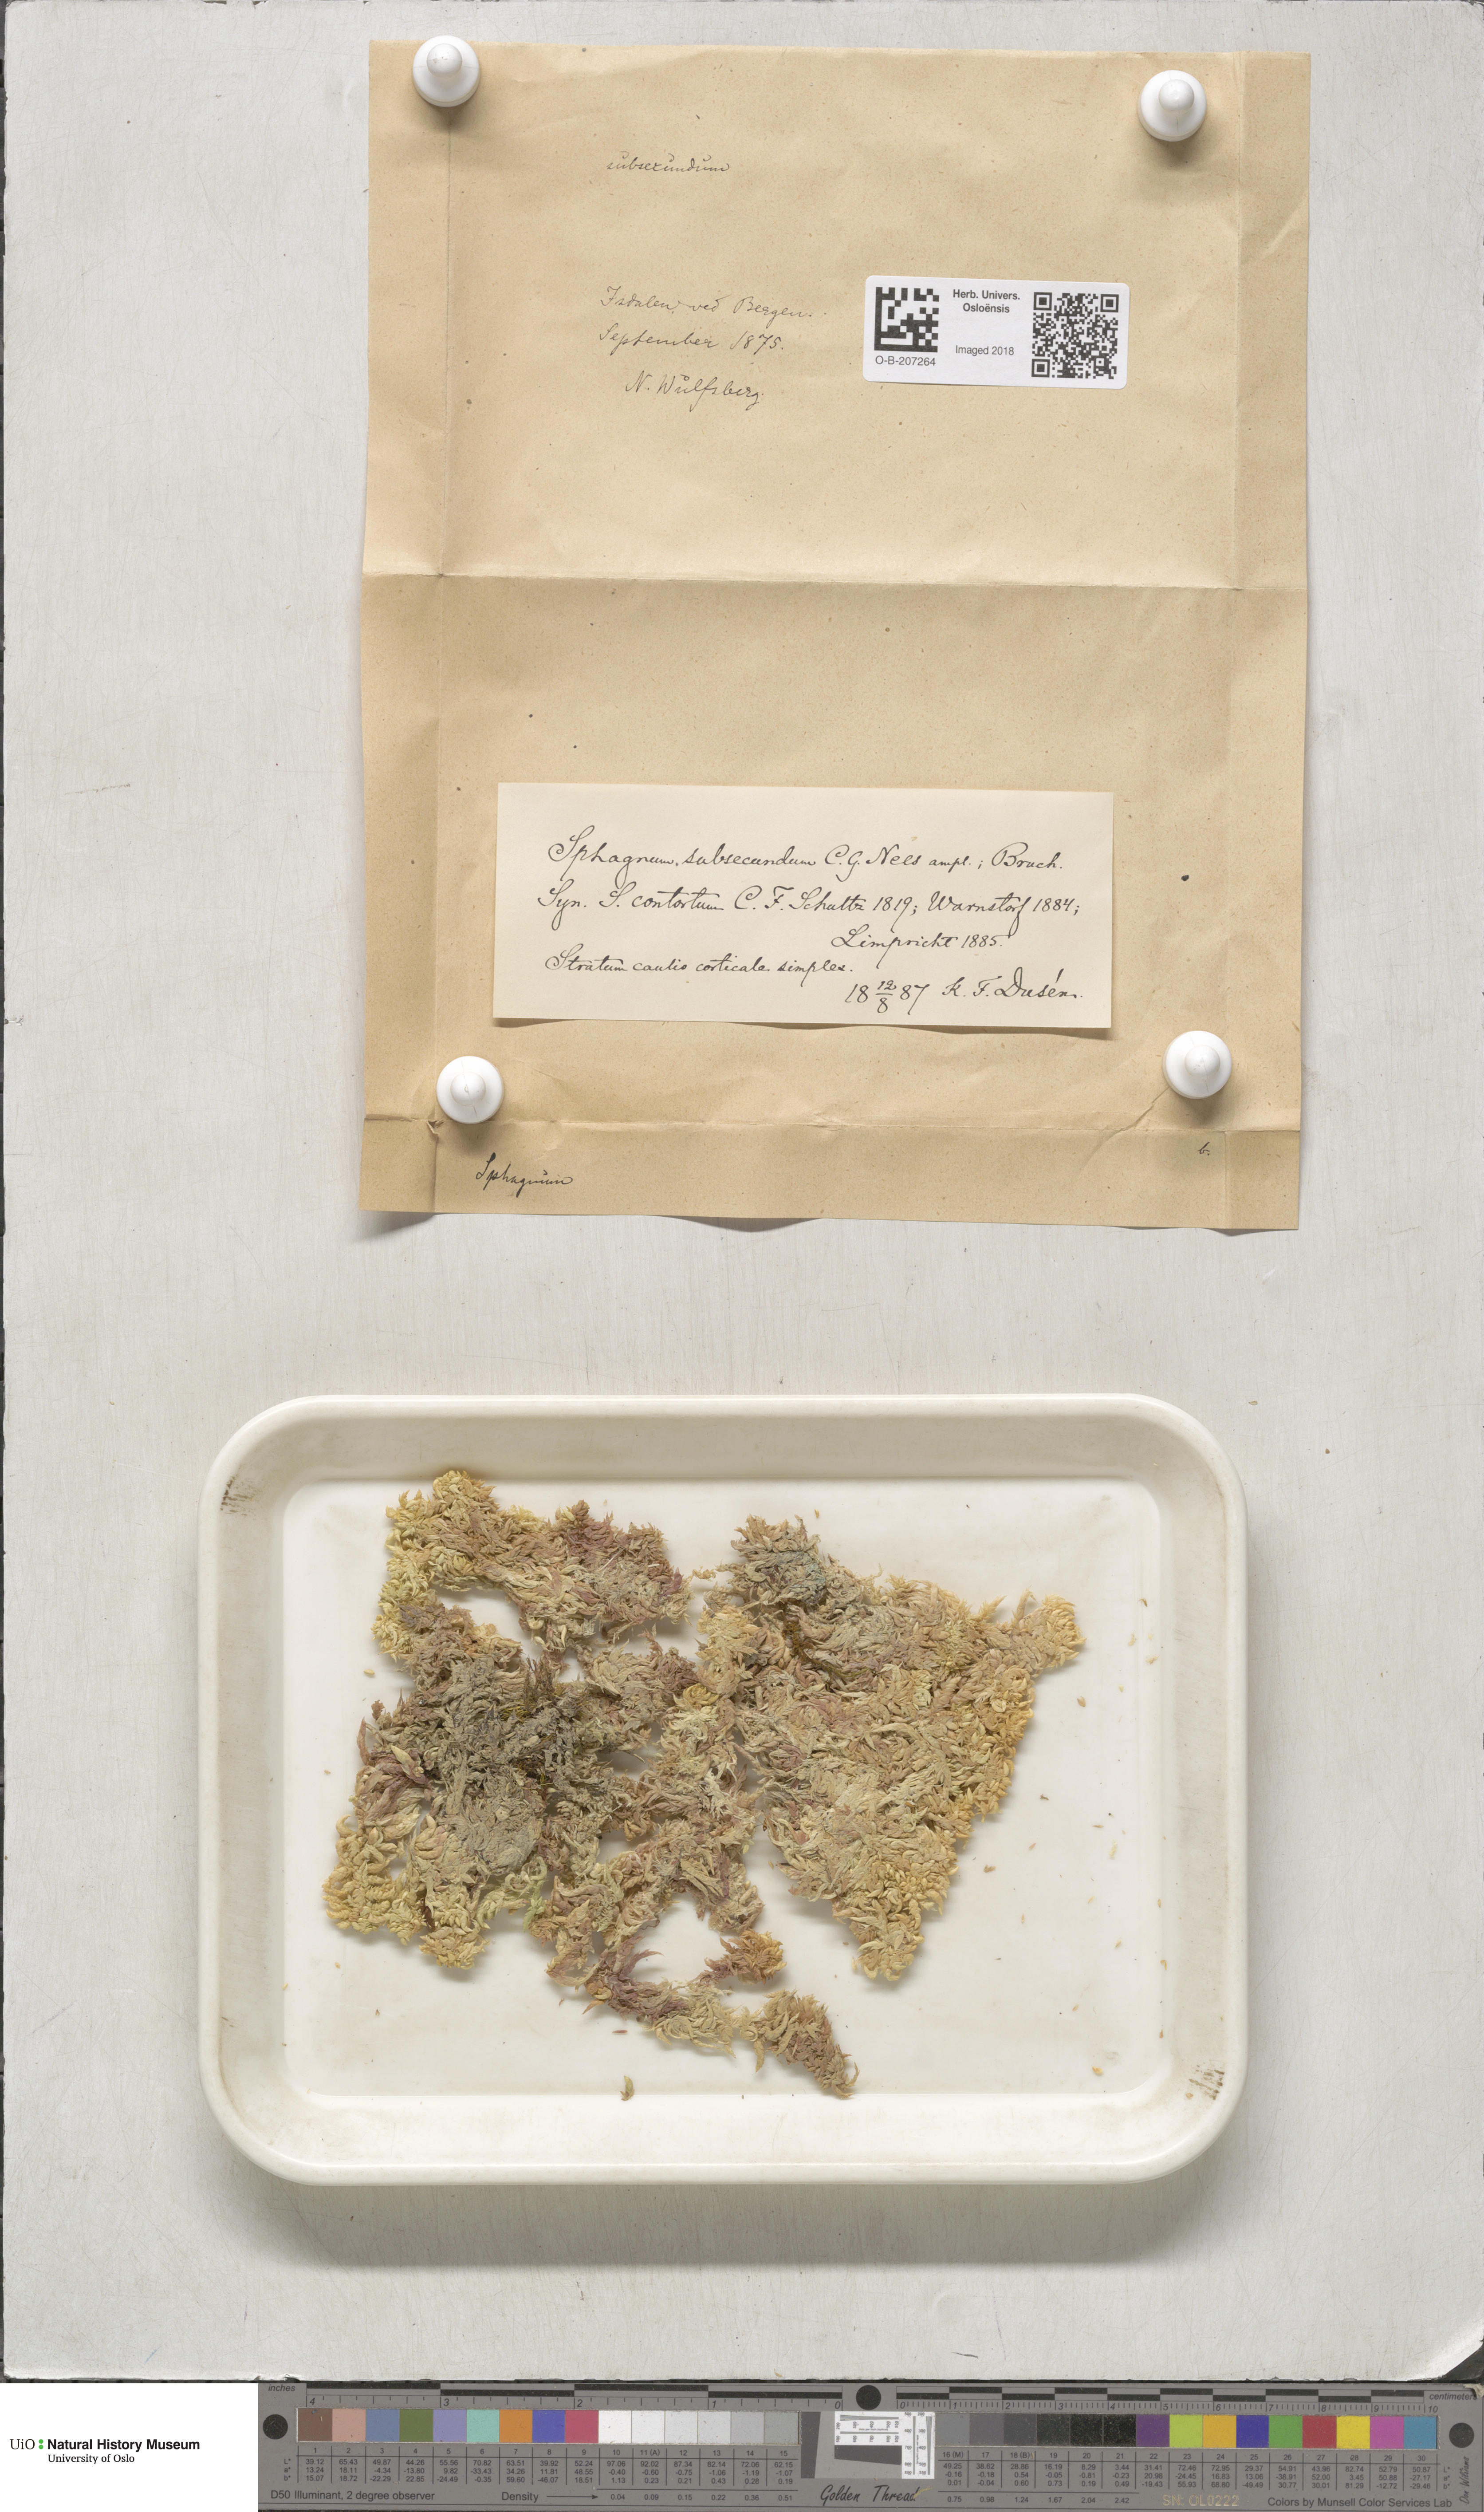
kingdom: Plantae
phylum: Bryophyta
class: Sphagnopsida
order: Sphagnales
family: Sphagnaceae
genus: Sphagnum
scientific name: Sphagnum subsecundum
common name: Orange peat moss
